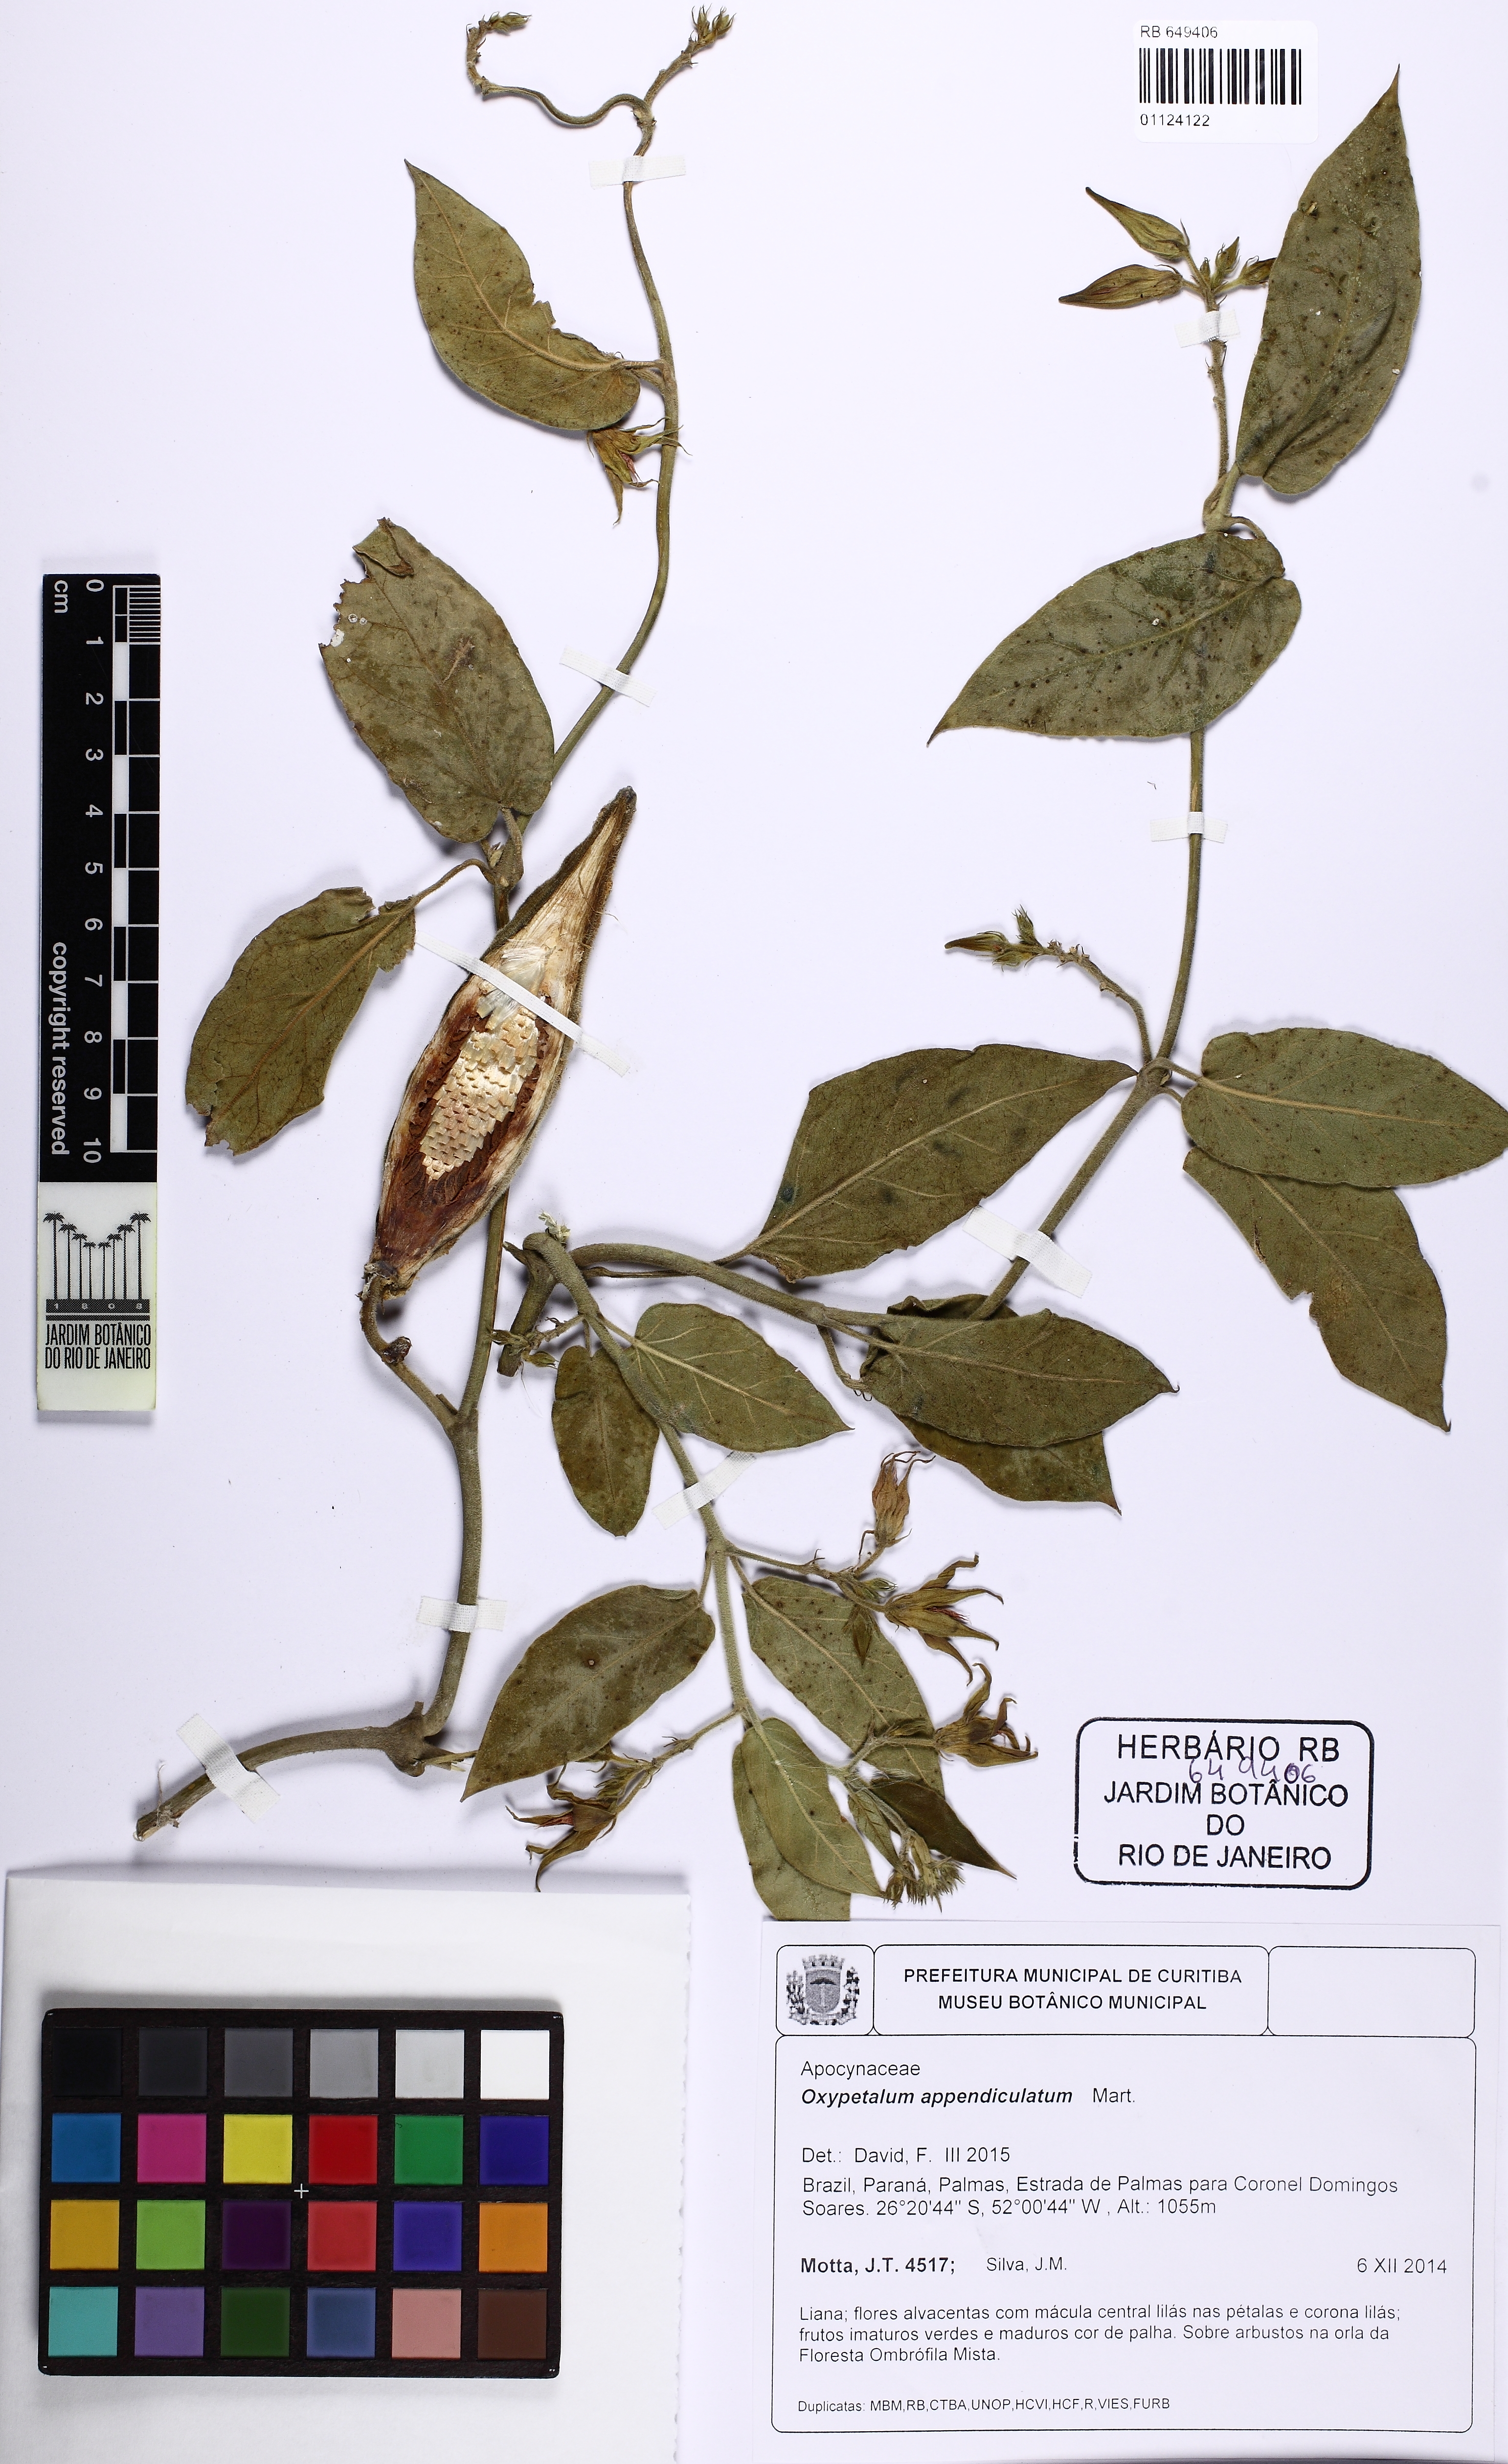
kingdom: Plantae
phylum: Tracheophyta
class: Magnoliopsida
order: Gentianales
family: Apocynaceae
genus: Oxypetalum
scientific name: Oxypetalum appendiculatum
